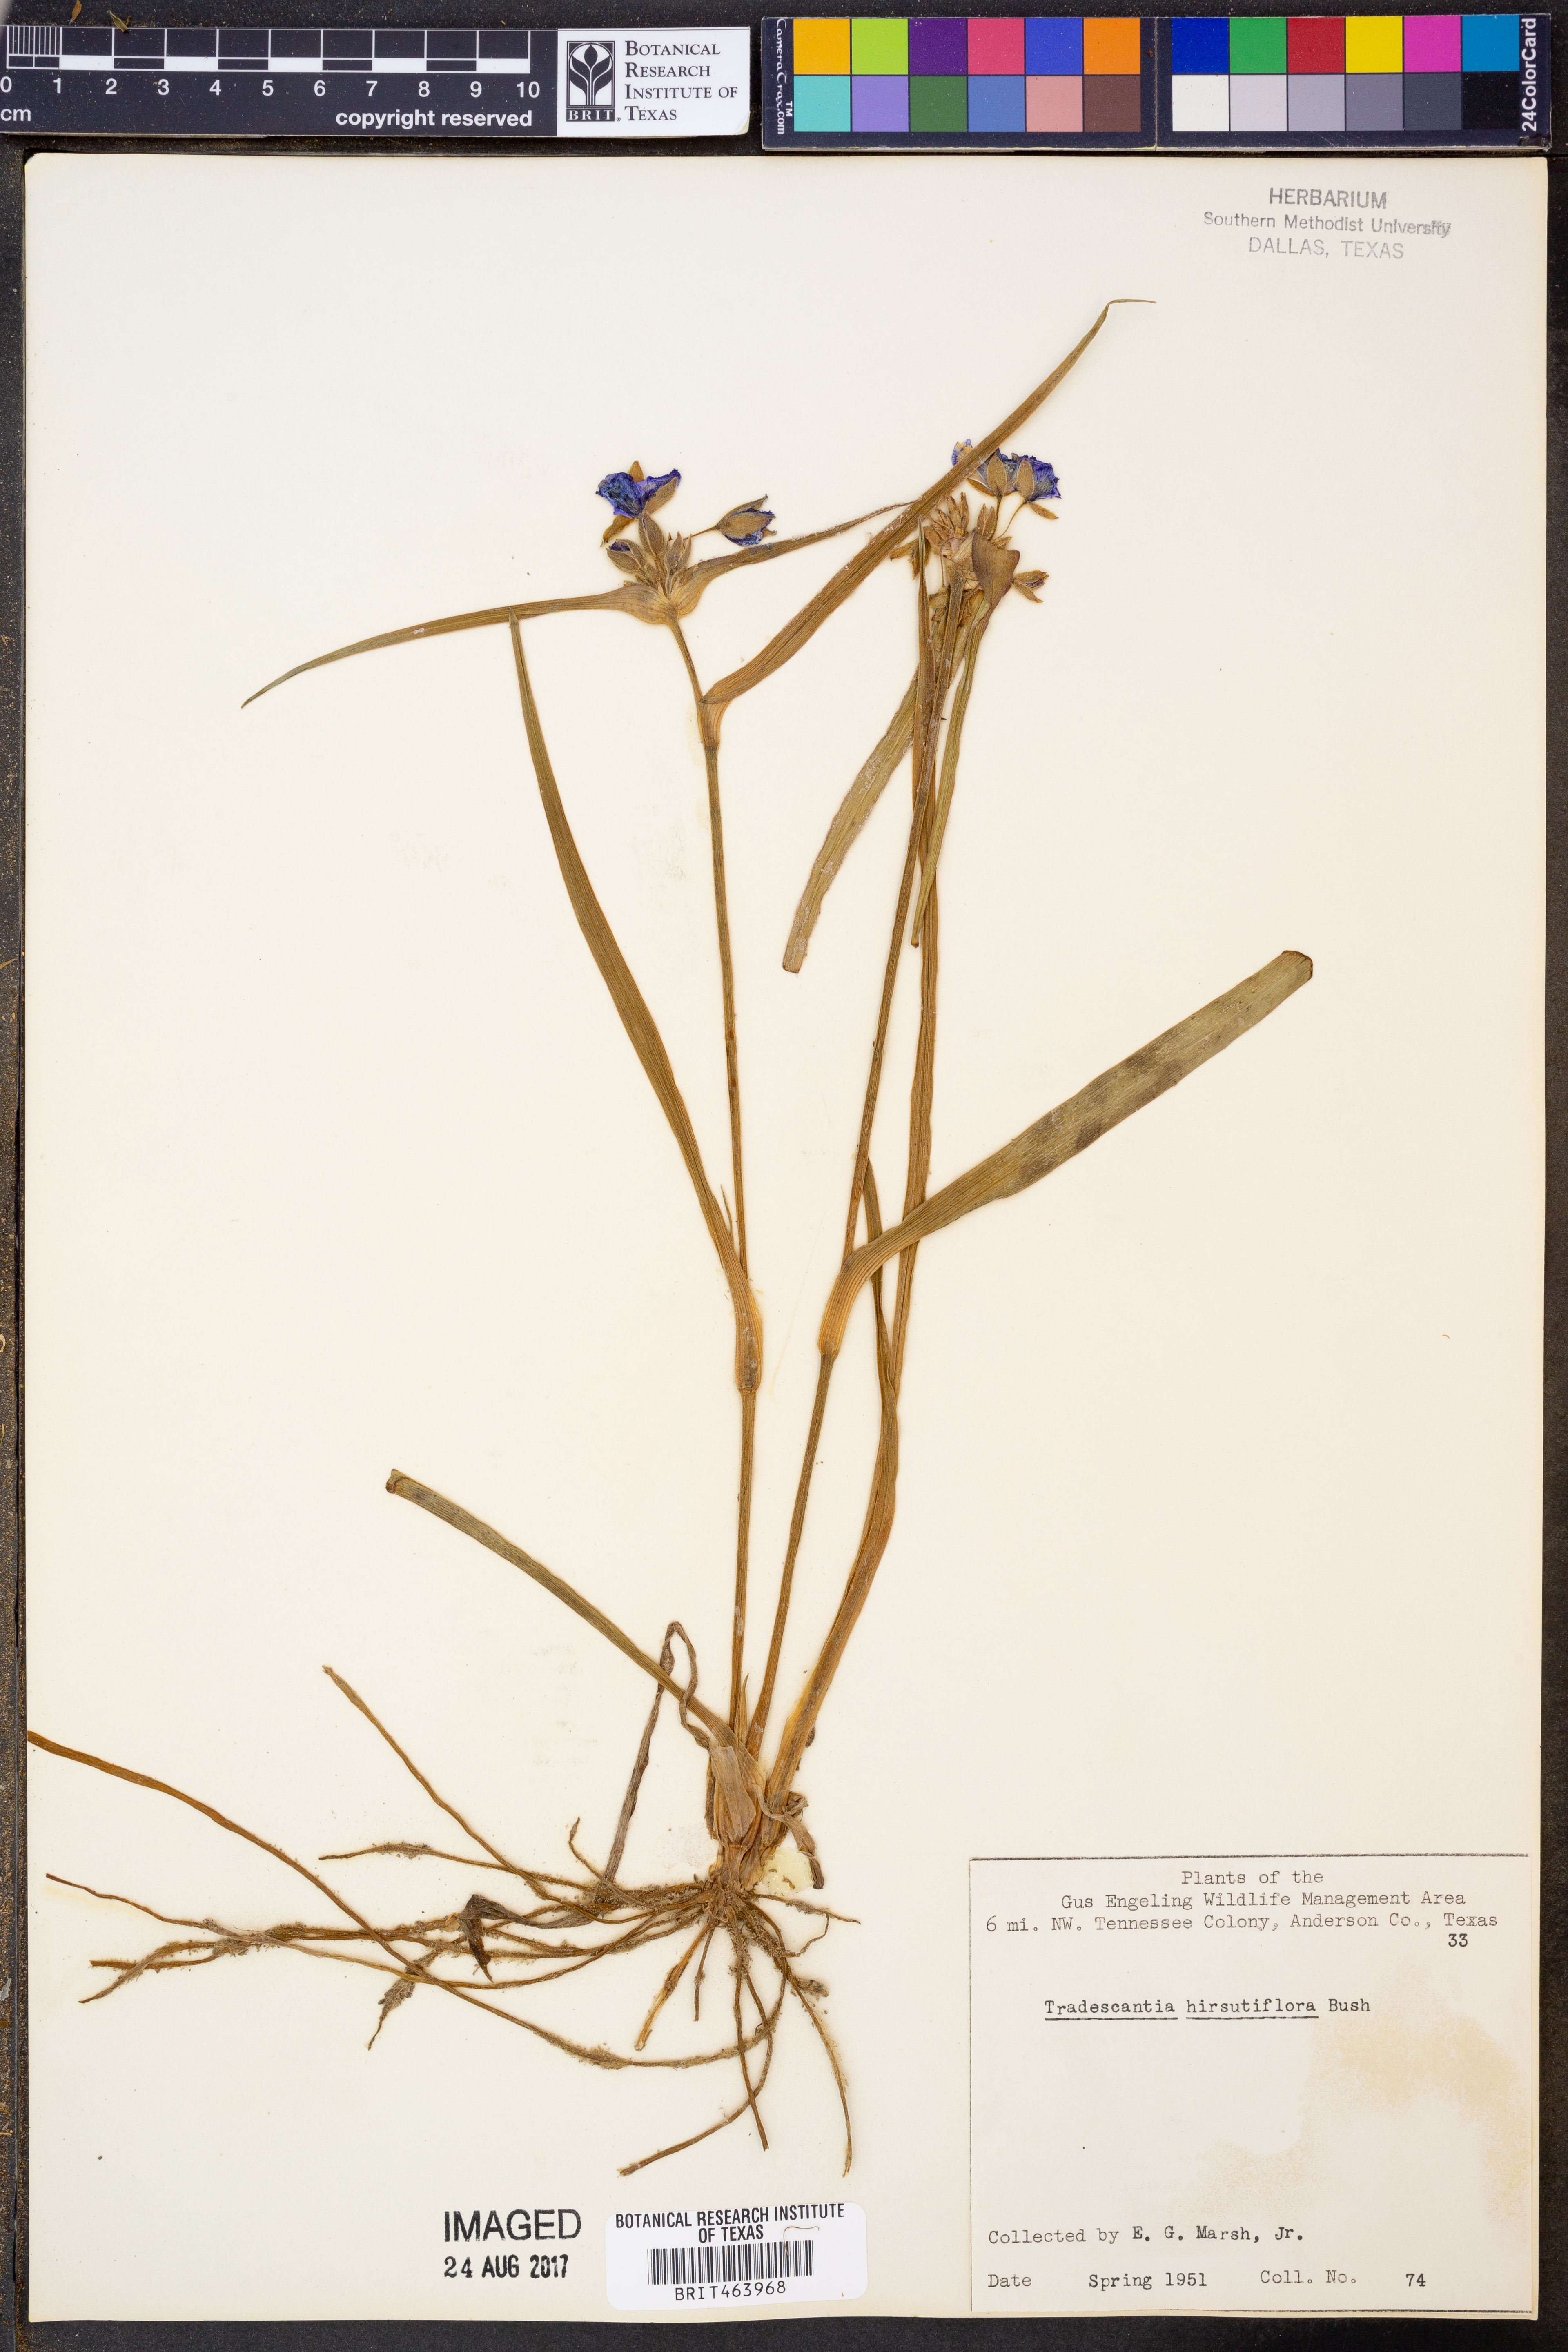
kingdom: Plantae
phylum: Tracheophyta
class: Liliopsida
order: Commelinales
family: Commelinaceae
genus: Tradescantia
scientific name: Tradescantia hirsutiflora
